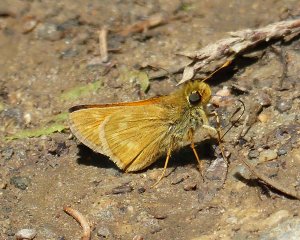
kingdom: Animalia
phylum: Arthropoda
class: Insecta
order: Lepidoptera
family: Hesperiidae
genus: Hesperia
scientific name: Hesperia sassacus
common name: Sassacus Skipper
